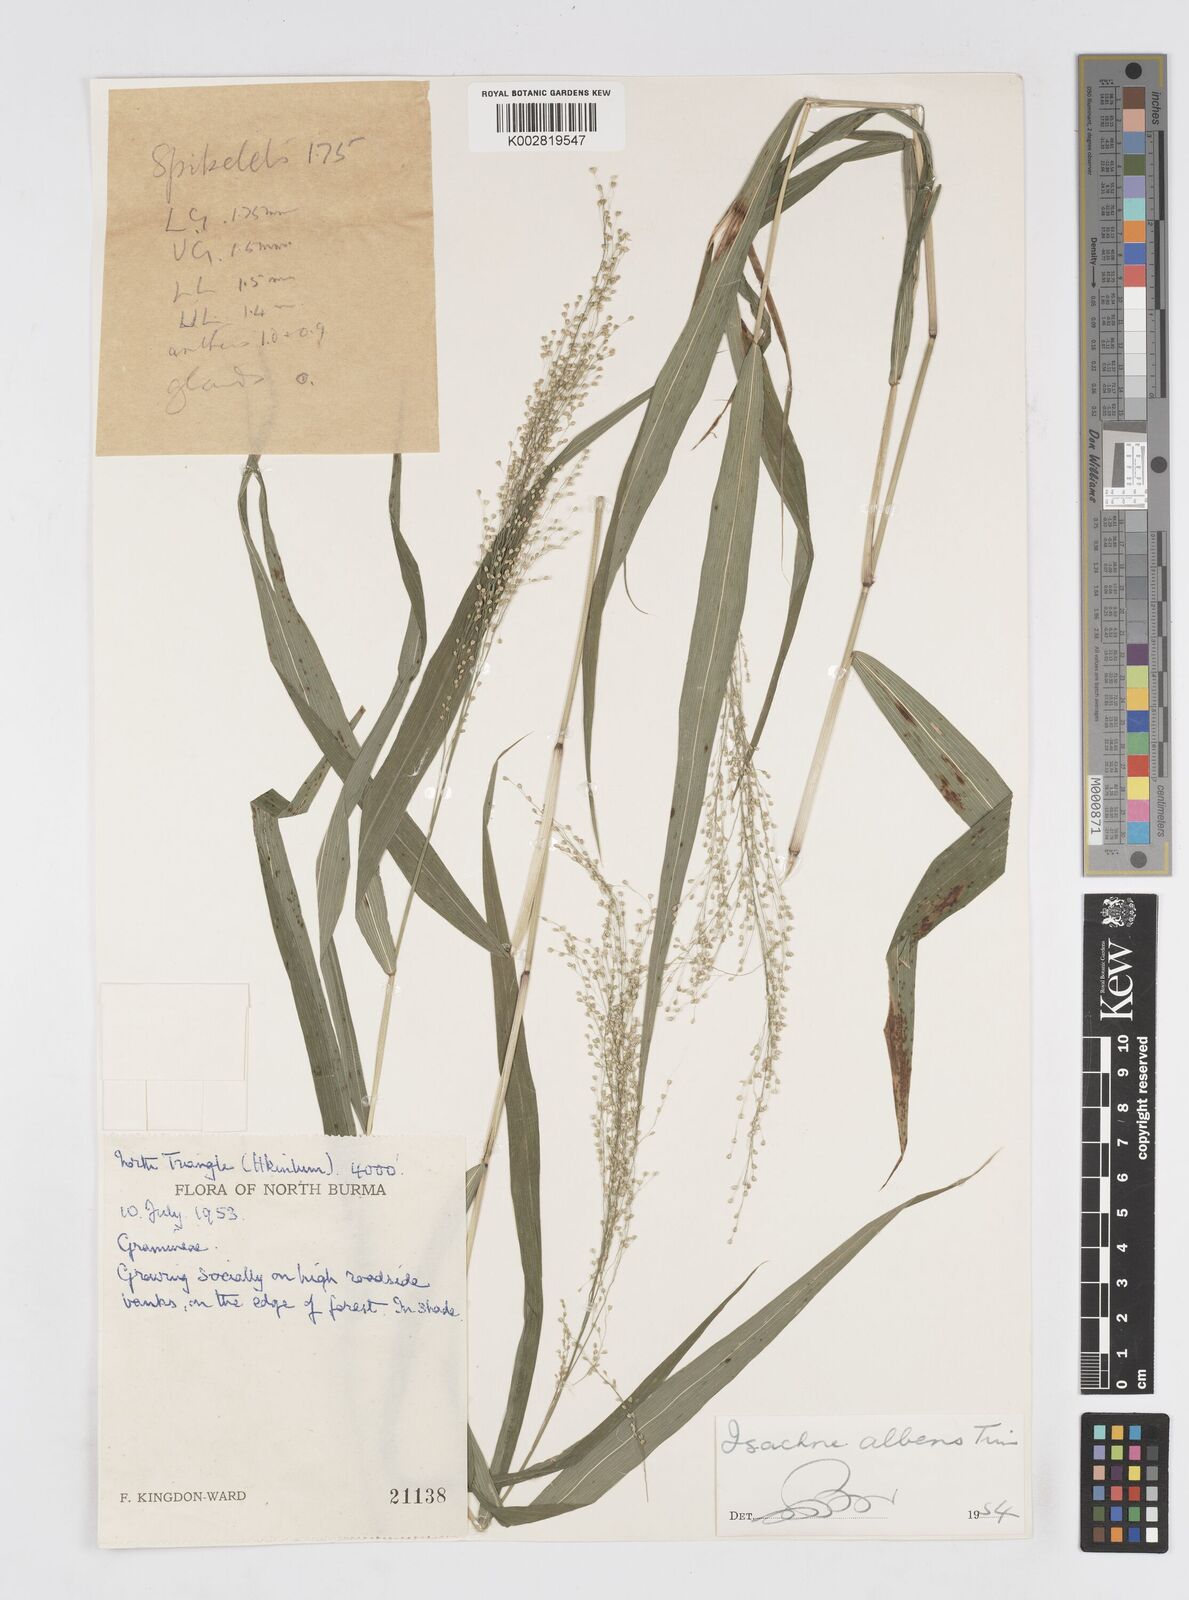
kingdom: Plantae
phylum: Tracheophyta
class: Liliopsida
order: Poales
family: Poaceae
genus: Isachne
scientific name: Isachne albens
